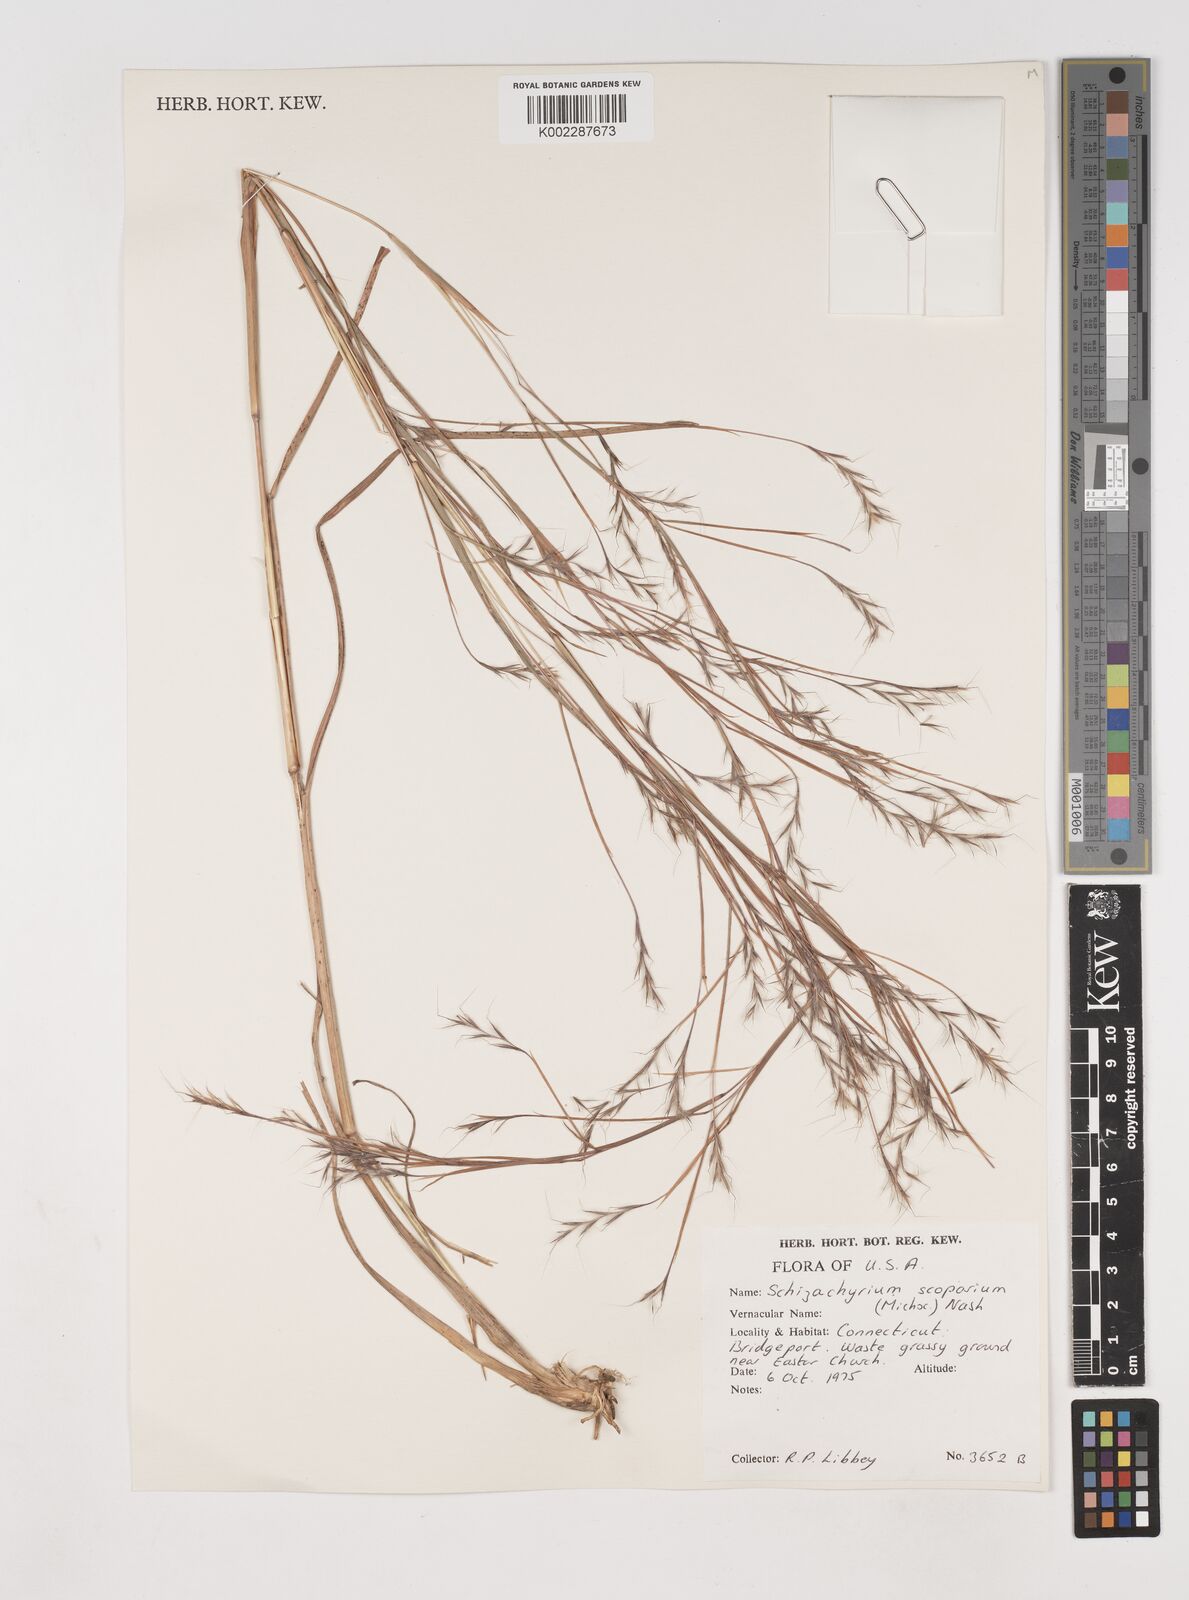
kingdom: Plantae
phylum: Tracheophyta
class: Liliopsida
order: Poales
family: Poaceae
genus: Schizachyrium
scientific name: Schizachyrium scoparium
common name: Little bluestem
